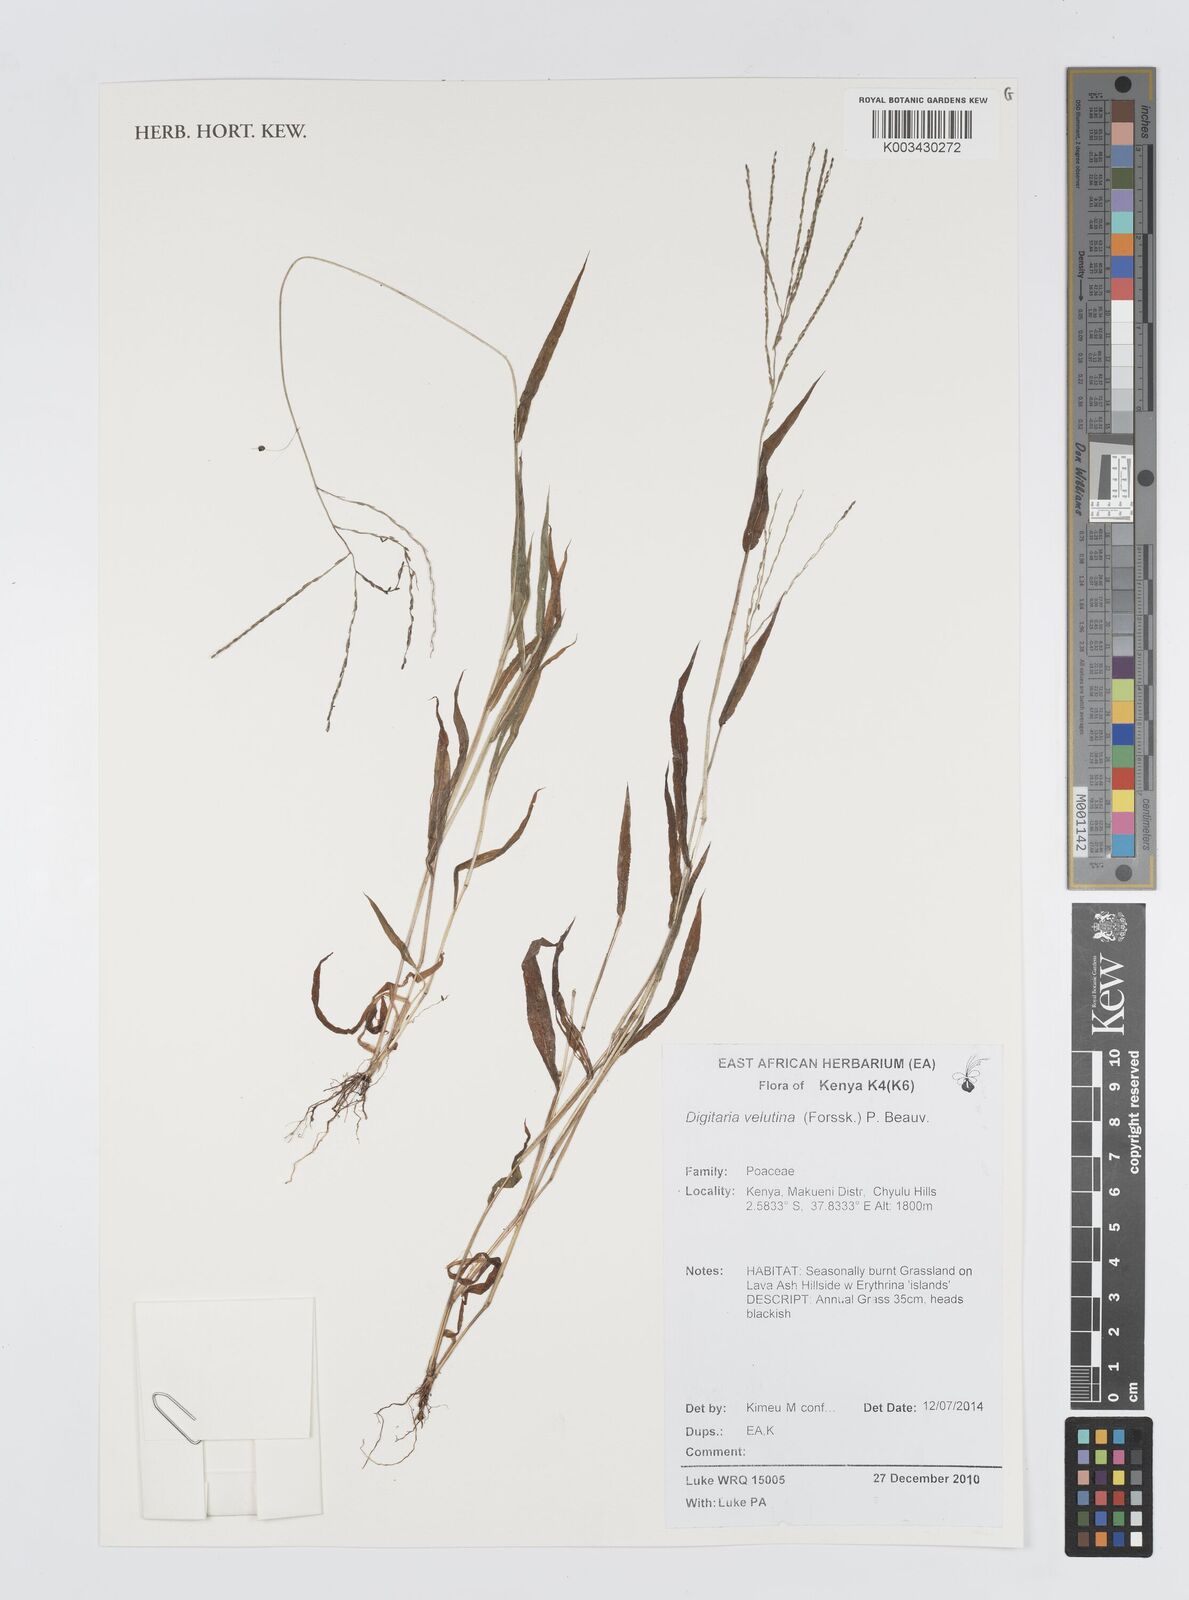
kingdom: Plantae
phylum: Tracheophyta
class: Liliopsida
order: Poales
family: Poaceae
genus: Digitaria
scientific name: Digitaria velutina
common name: Long-plume finger grass
